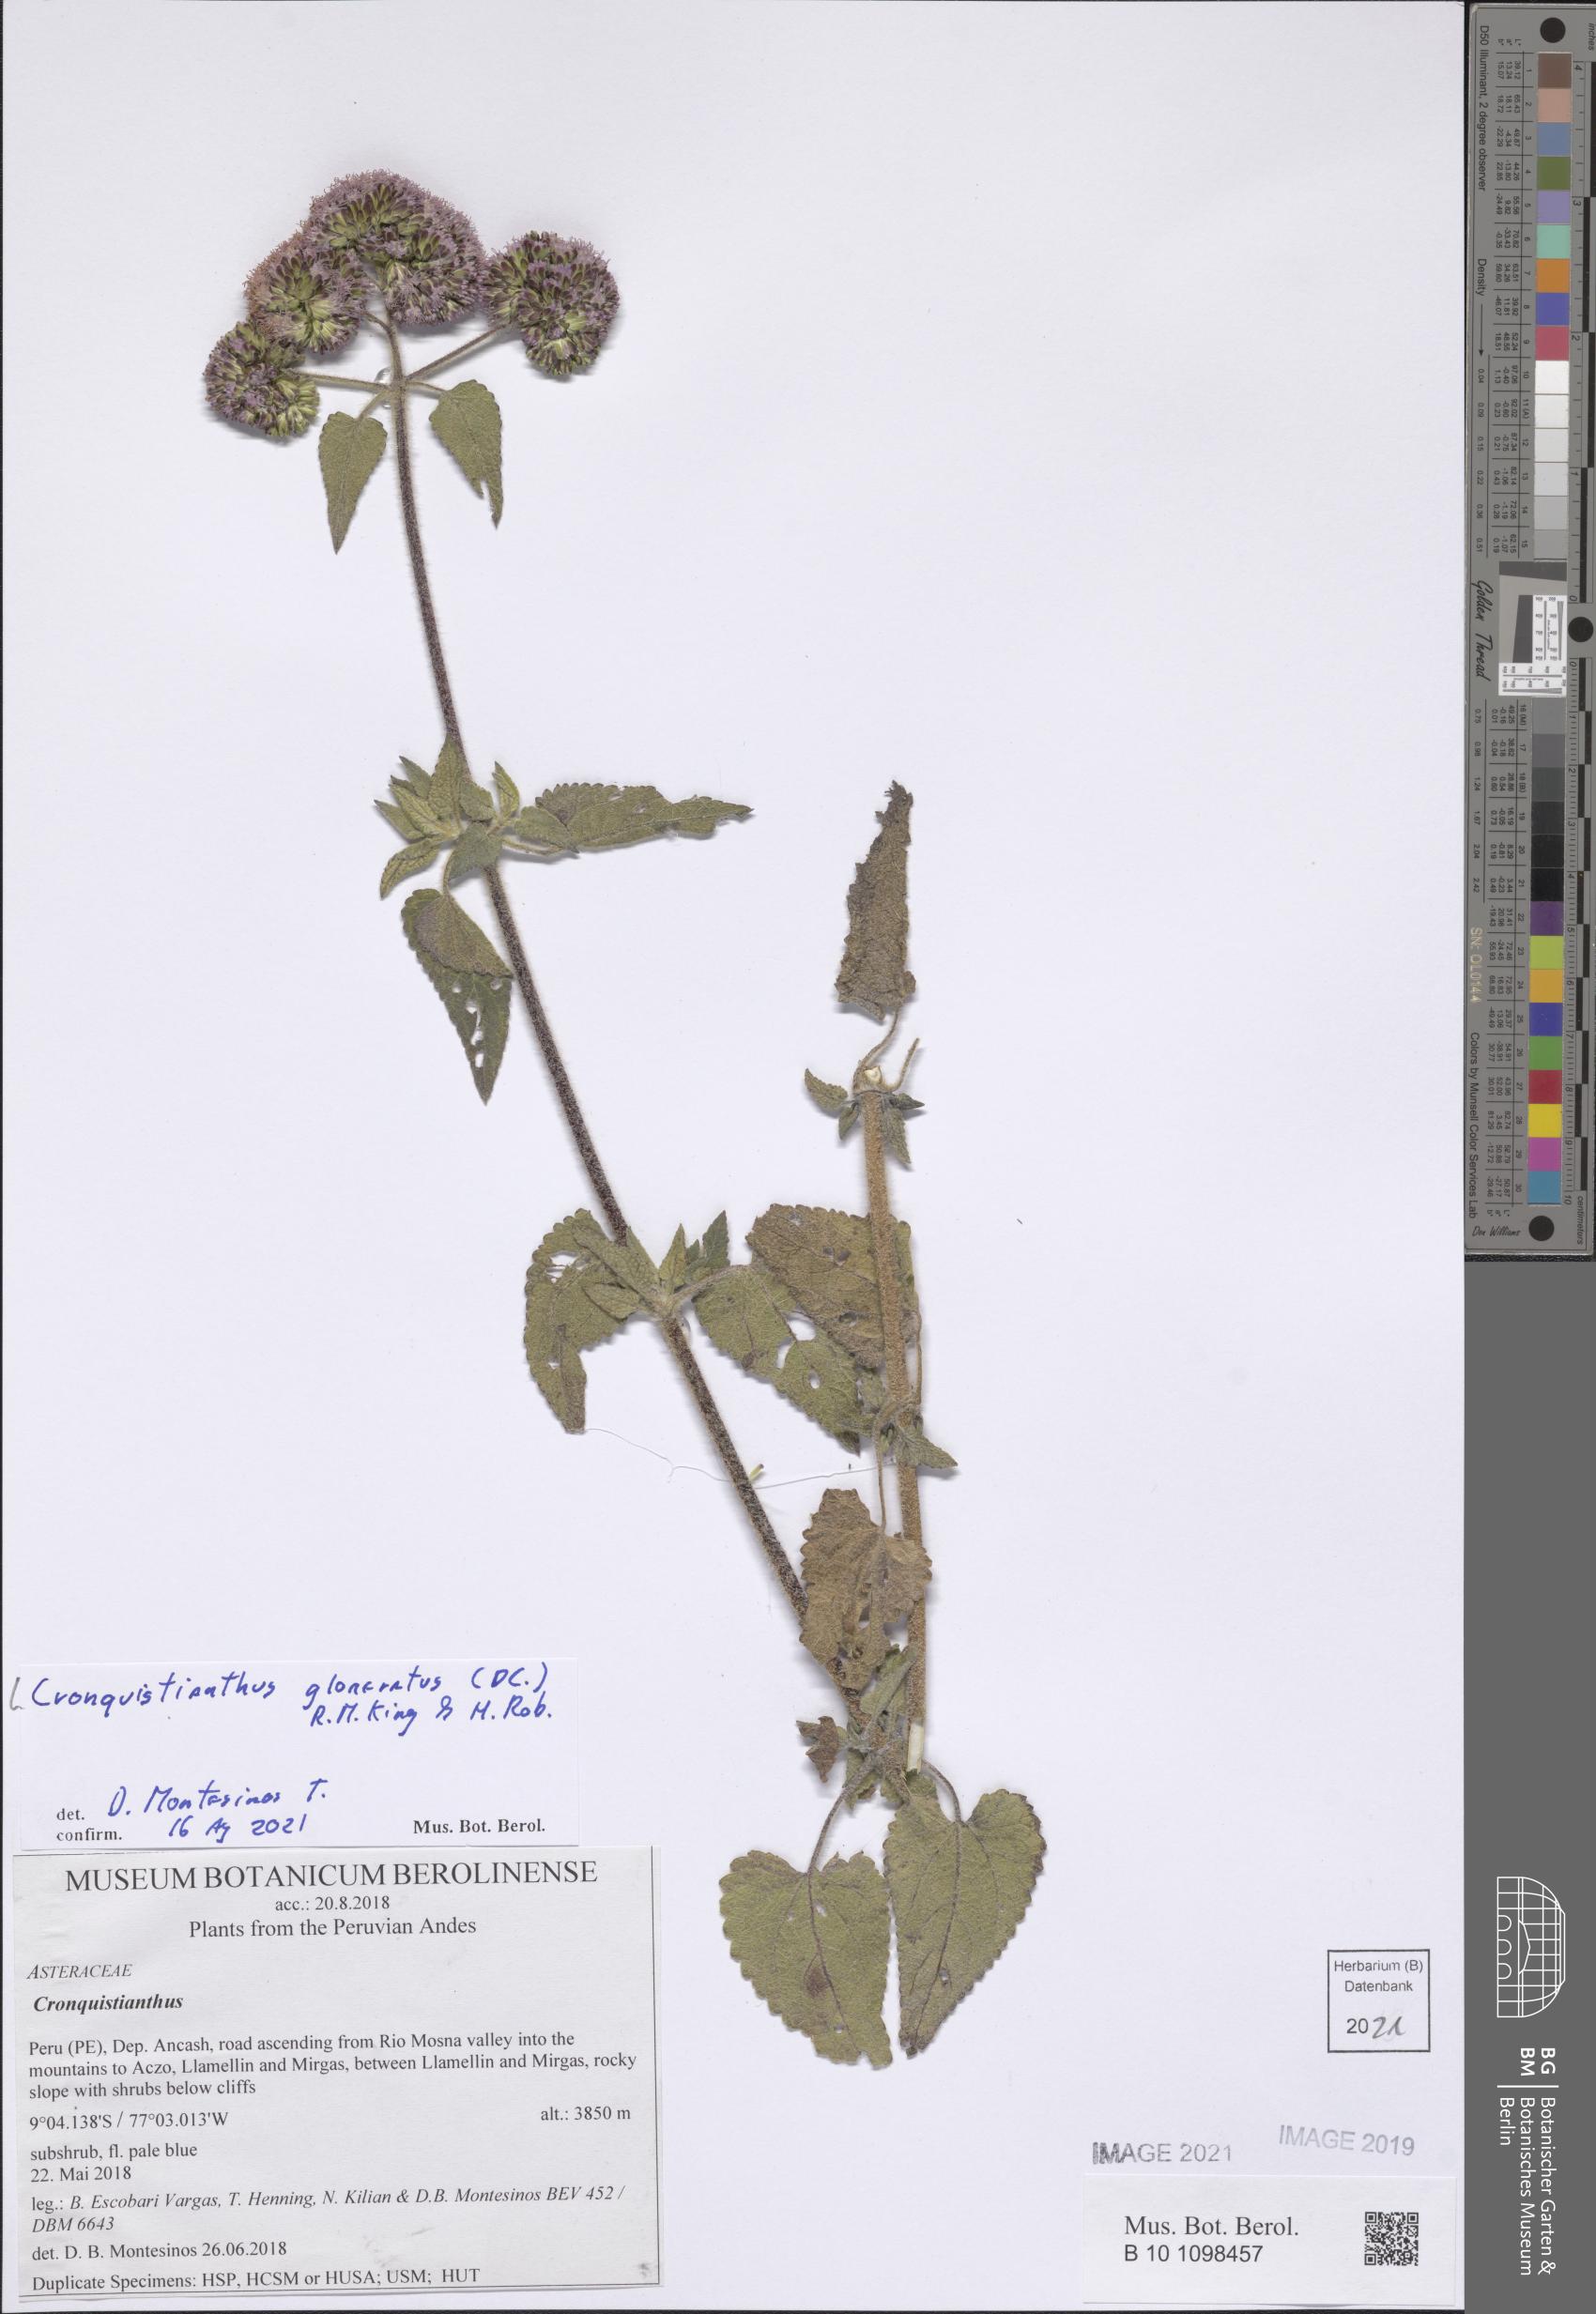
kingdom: Plantae
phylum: Tracheophyta
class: Magnoliopsida
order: Asterales
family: Asteraceae
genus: Cronquistianthus
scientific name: Cronquistianthus glomeratus
